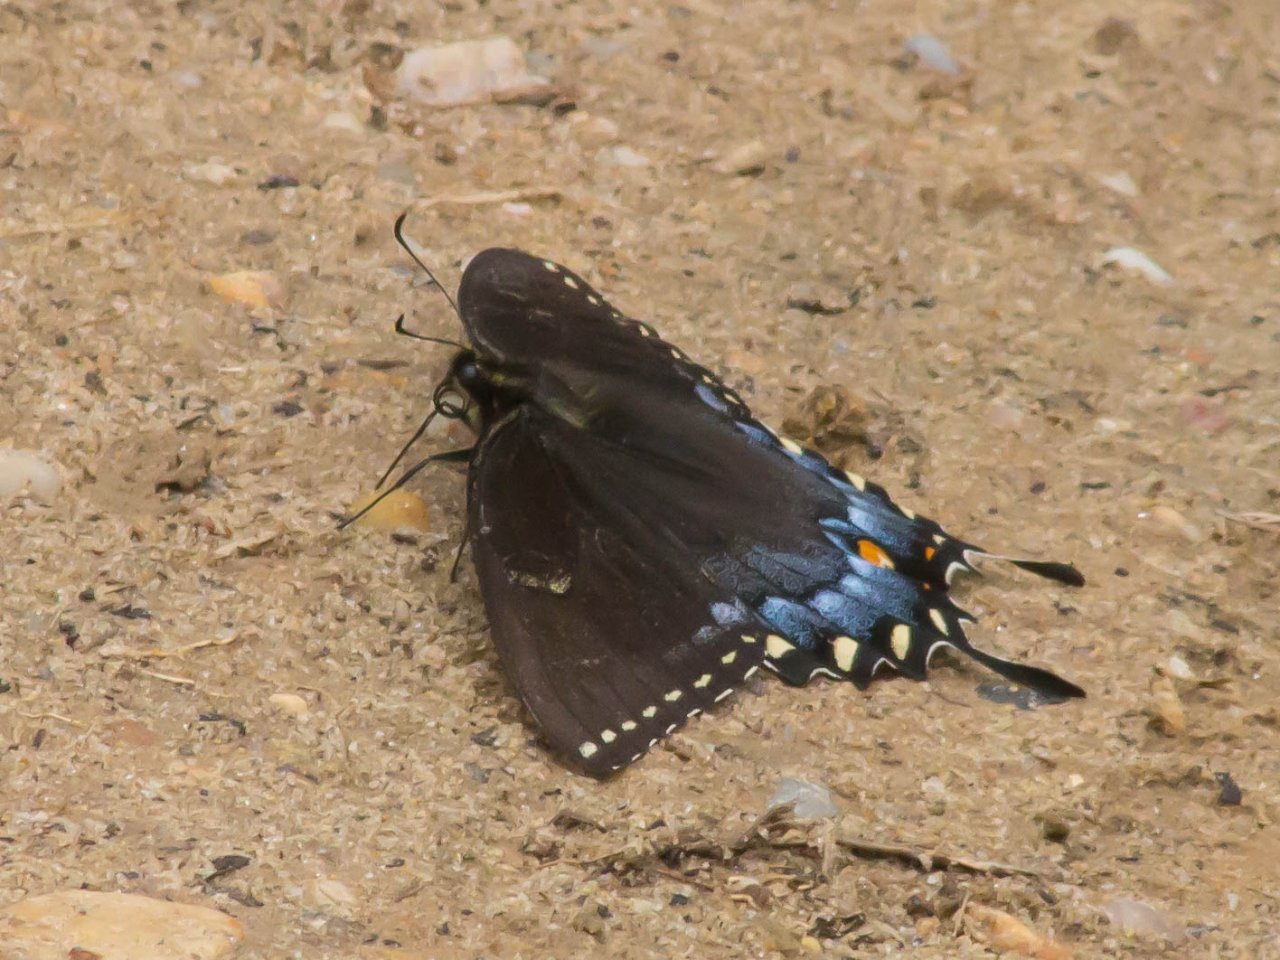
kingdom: Animalia
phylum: Arthropoda
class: Insecta
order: Lepidoptera
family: Papilionidae
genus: Pterourus
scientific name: Pterourus glaucus
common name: Eastern Tiger Swallowtail
